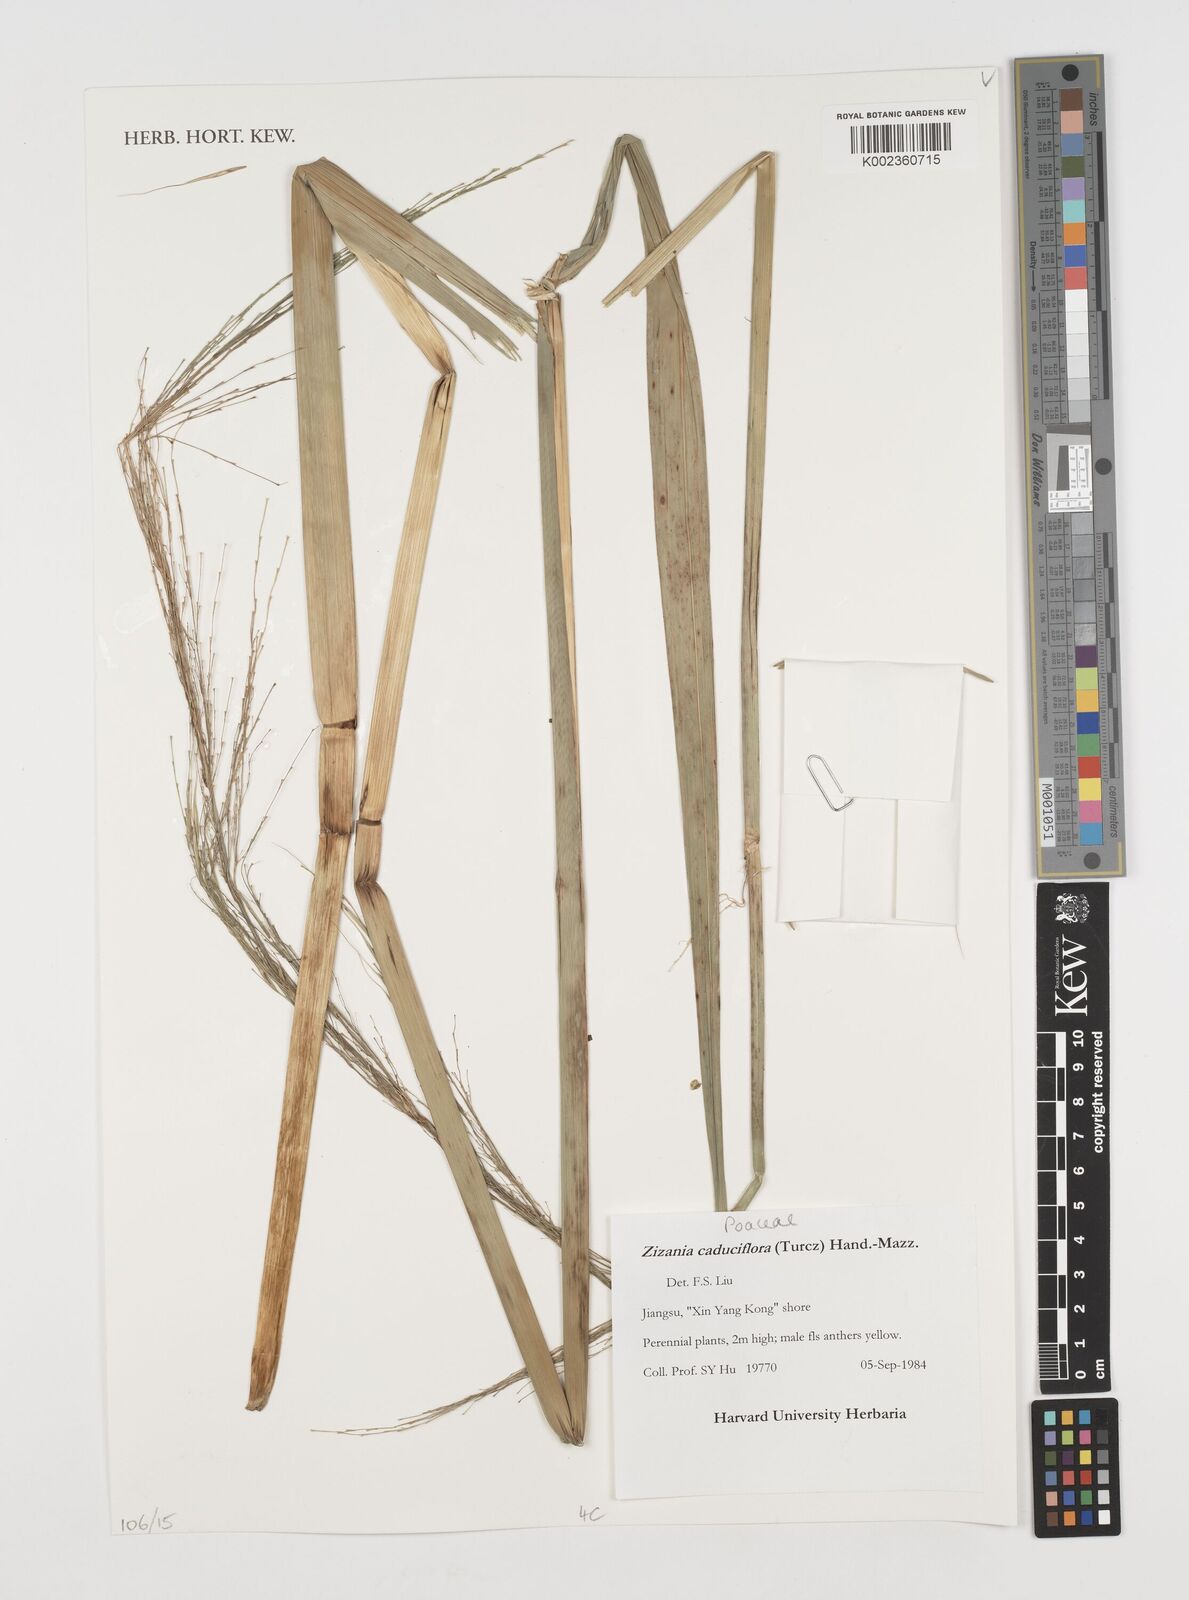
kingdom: Plantae
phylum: Tracheophyta
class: Liliopsida
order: Poales
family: Poaceae
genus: Zizania
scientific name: Zizania latifolia
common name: Manchurian wildrice
